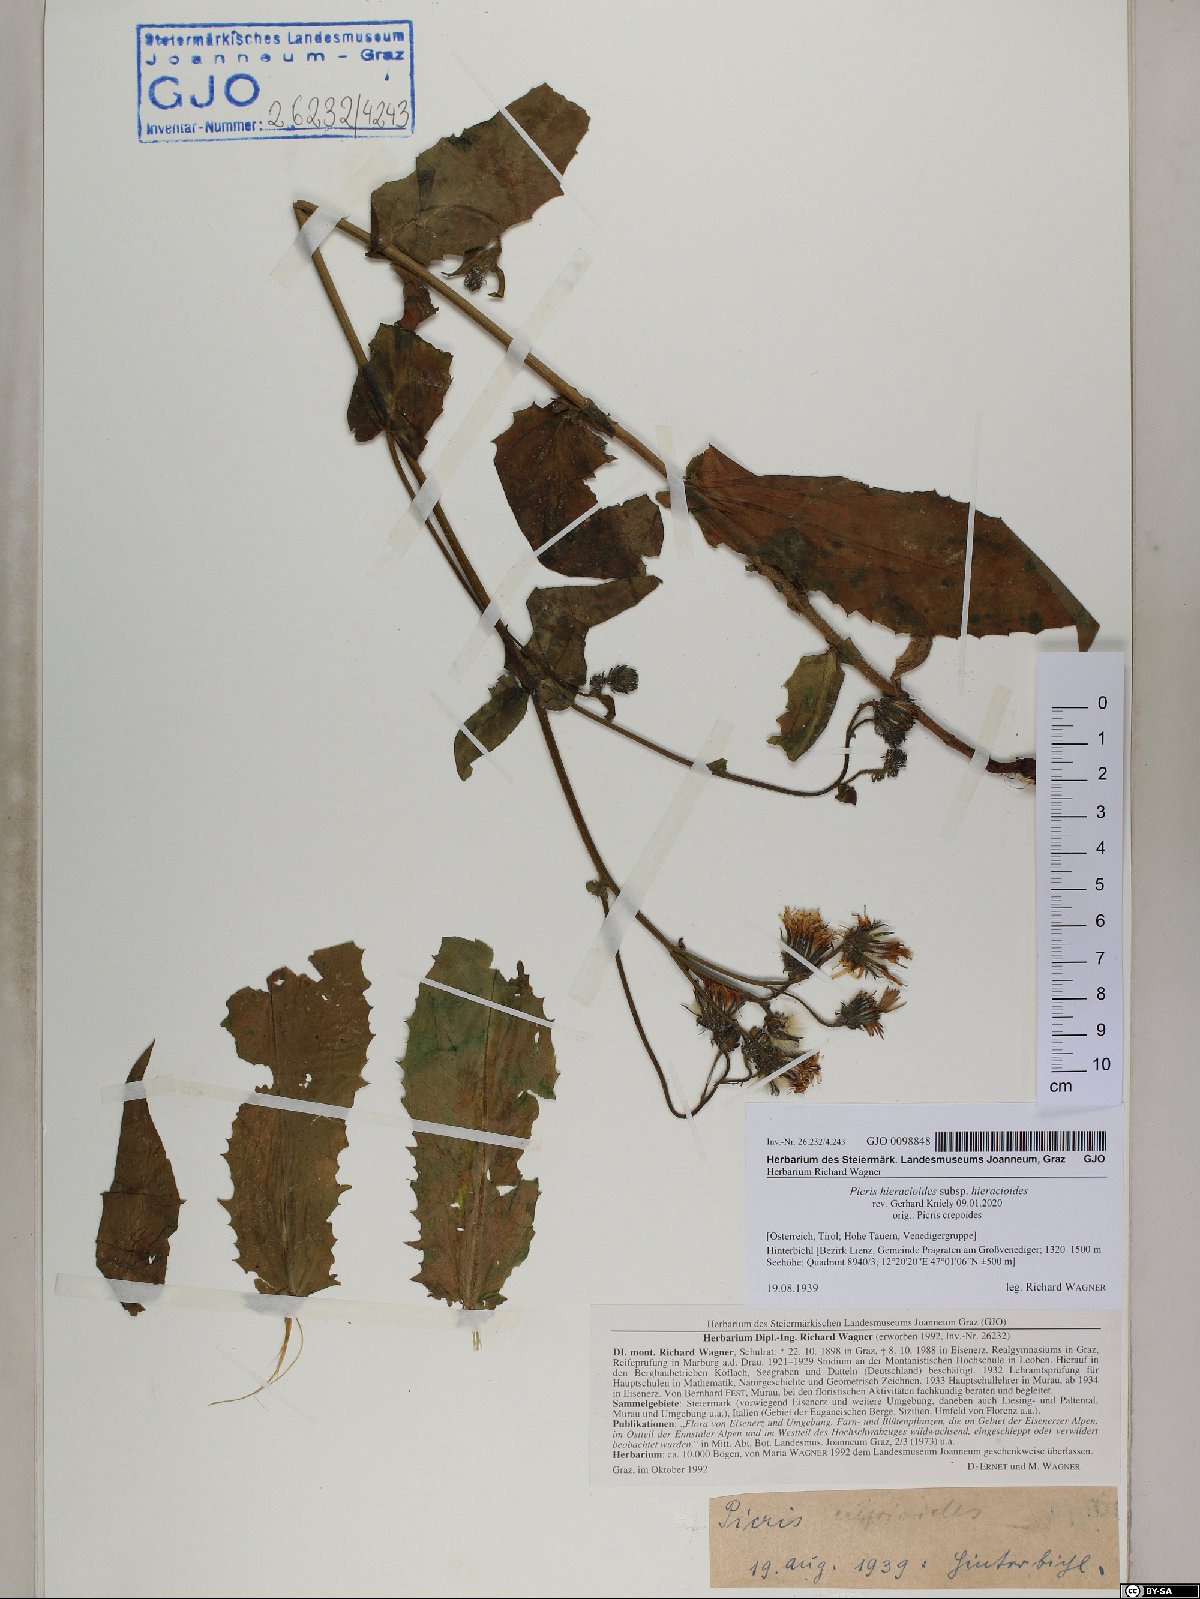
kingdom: Plantae
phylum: Tracheophyta
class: Magnoliopsida
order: Asterales
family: Asteraceae
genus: Picris
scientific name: Picris hieracioides
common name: Hawkweed oxtongue
